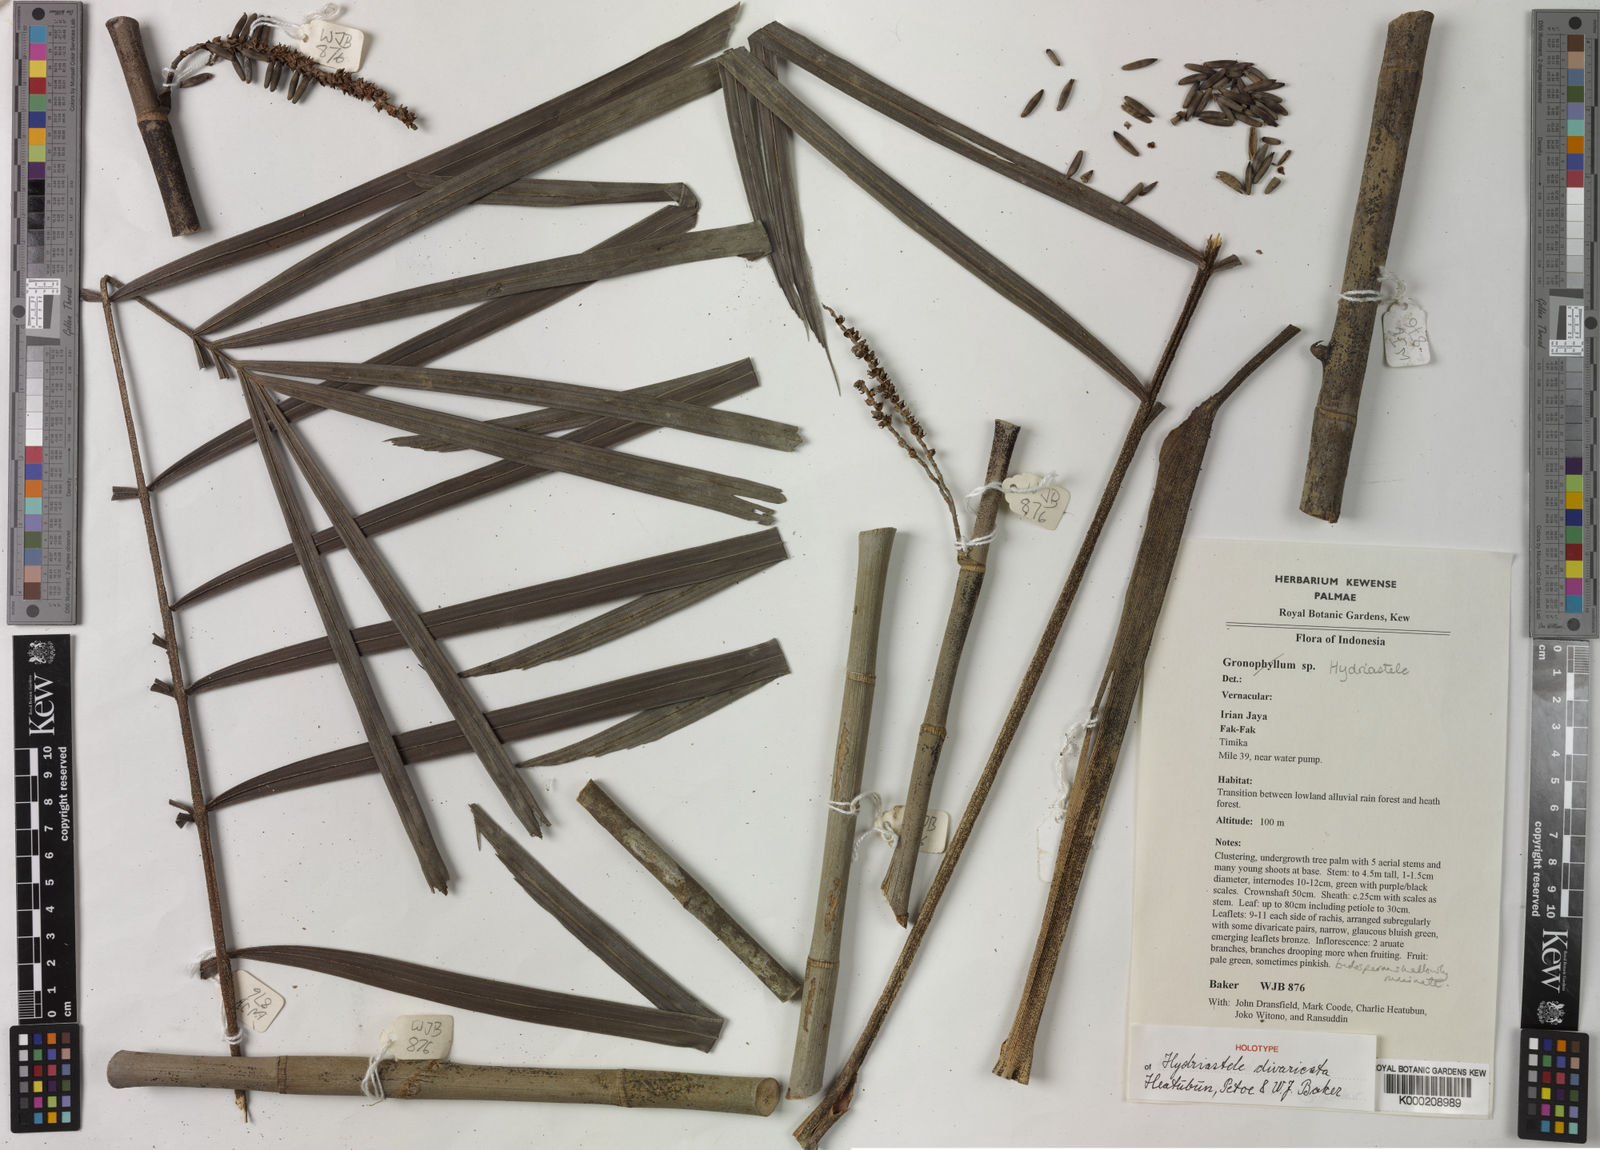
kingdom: Plantae
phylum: Tracheophyta
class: Liliopsida
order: Arecales
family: Arecaceae
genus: Hydriastele
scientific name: Hydriastele
